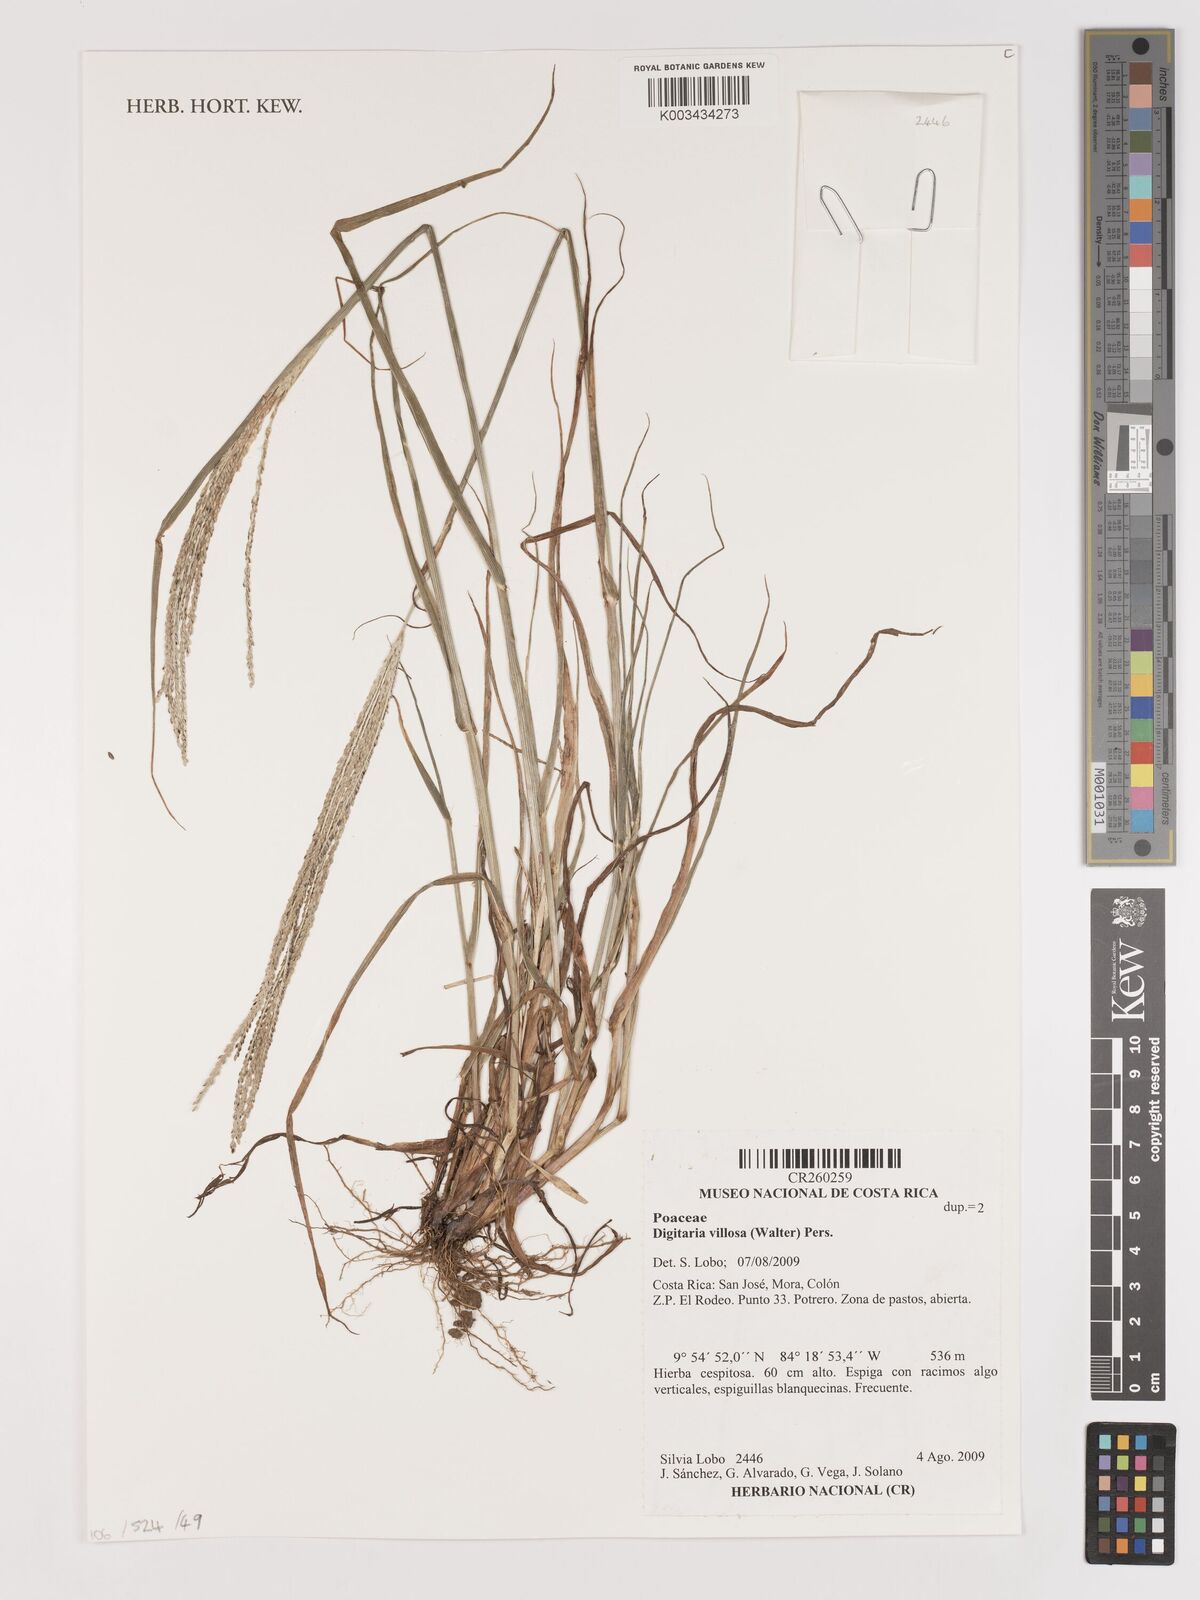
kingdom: Plantae
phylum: Tracheophyta
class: Liliopsida
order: Poales
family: Poaceae
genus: Digitaria
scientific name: Digitaria compacta
